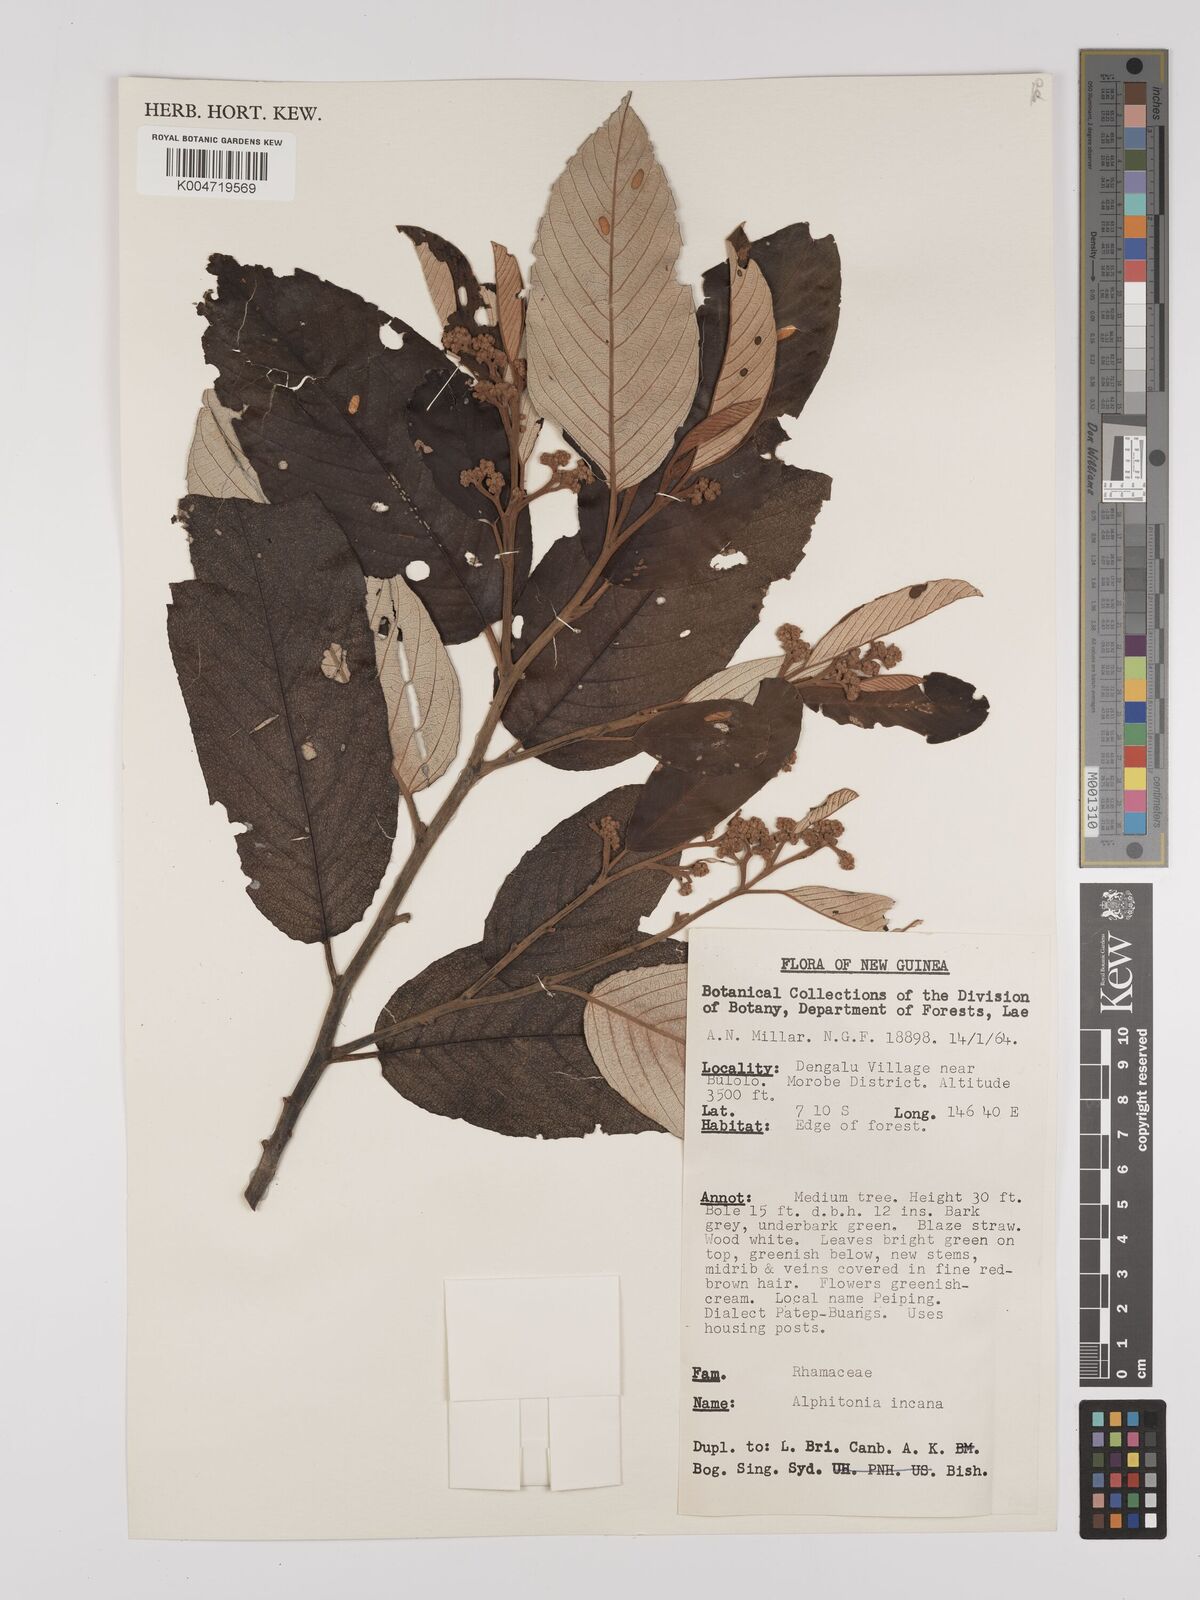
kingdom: Plantae
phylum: Tracheophyta
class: Magnoliopsida
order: Rosales
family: Rhamnaceae
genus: Alphitonia
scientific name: Alphitonia incana
